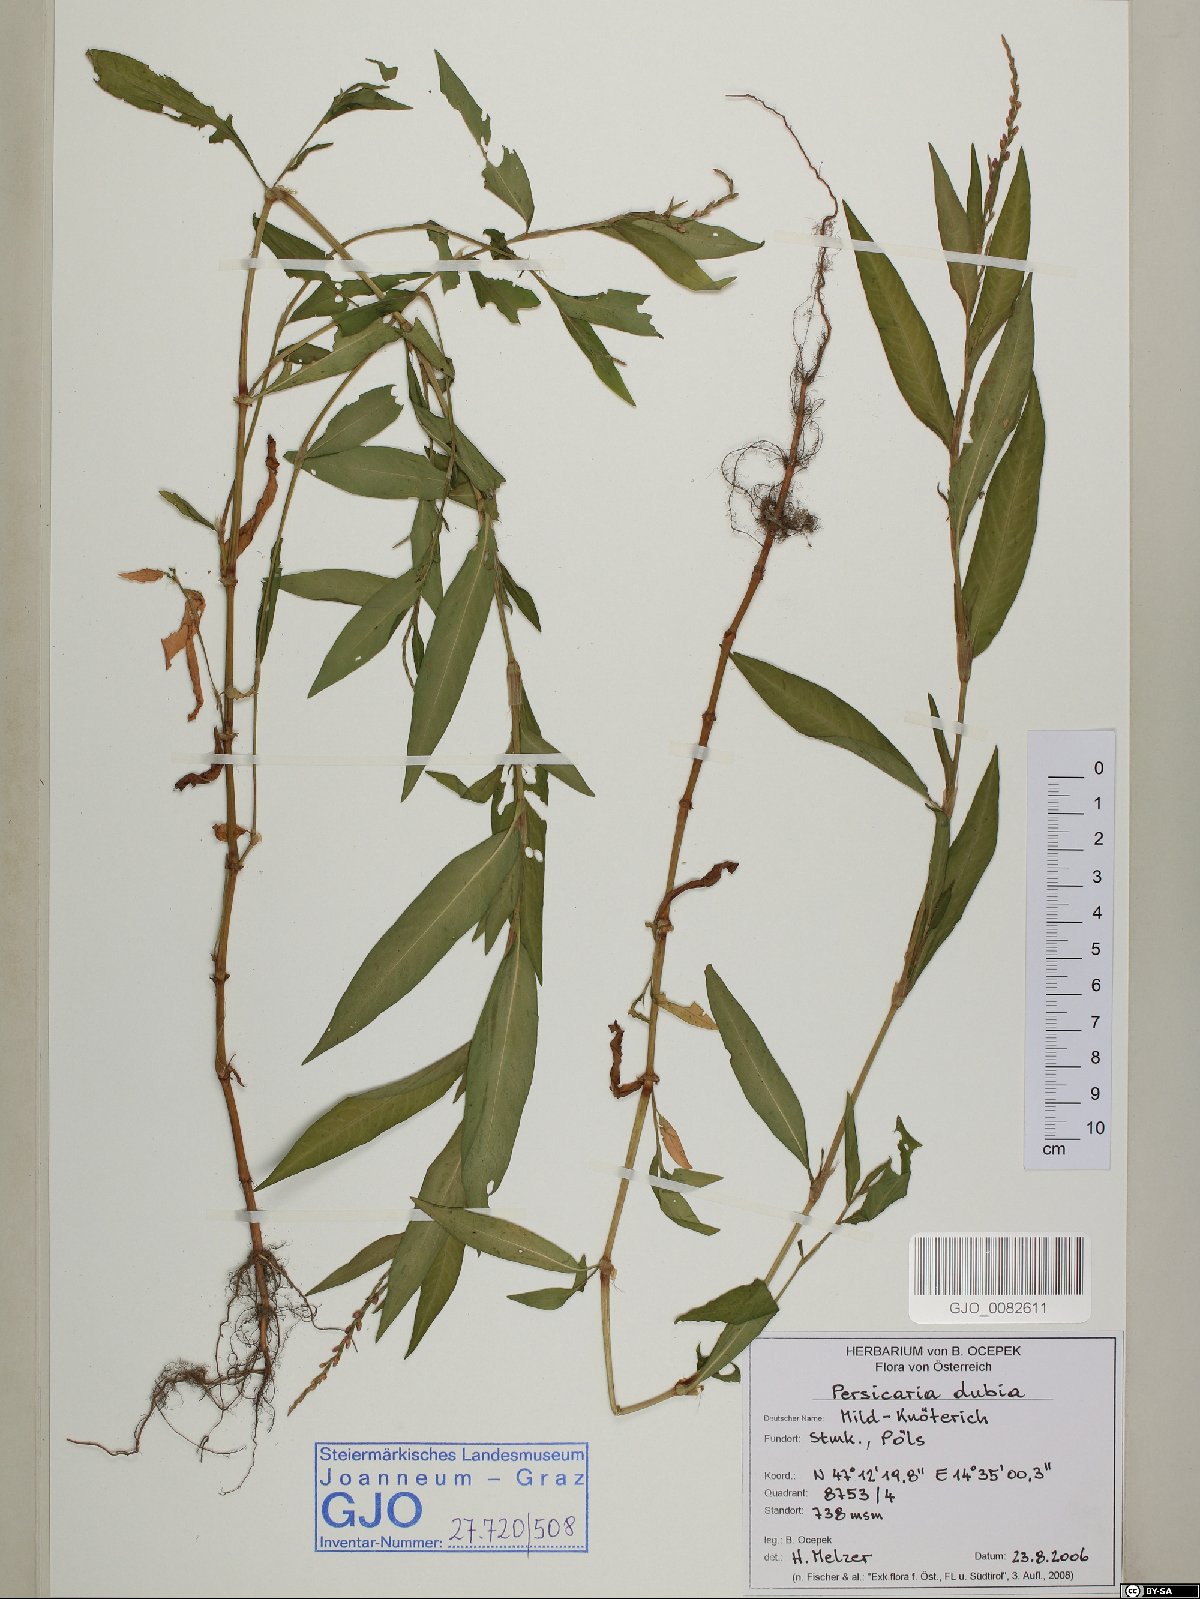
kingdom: Plantae
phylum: Tracheophyta
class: Magnoliopsida
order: Caryophyllales
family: Polygonaceae
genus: Persicaria
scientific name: Persicaria mitis
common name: Tasteless water-pepper
